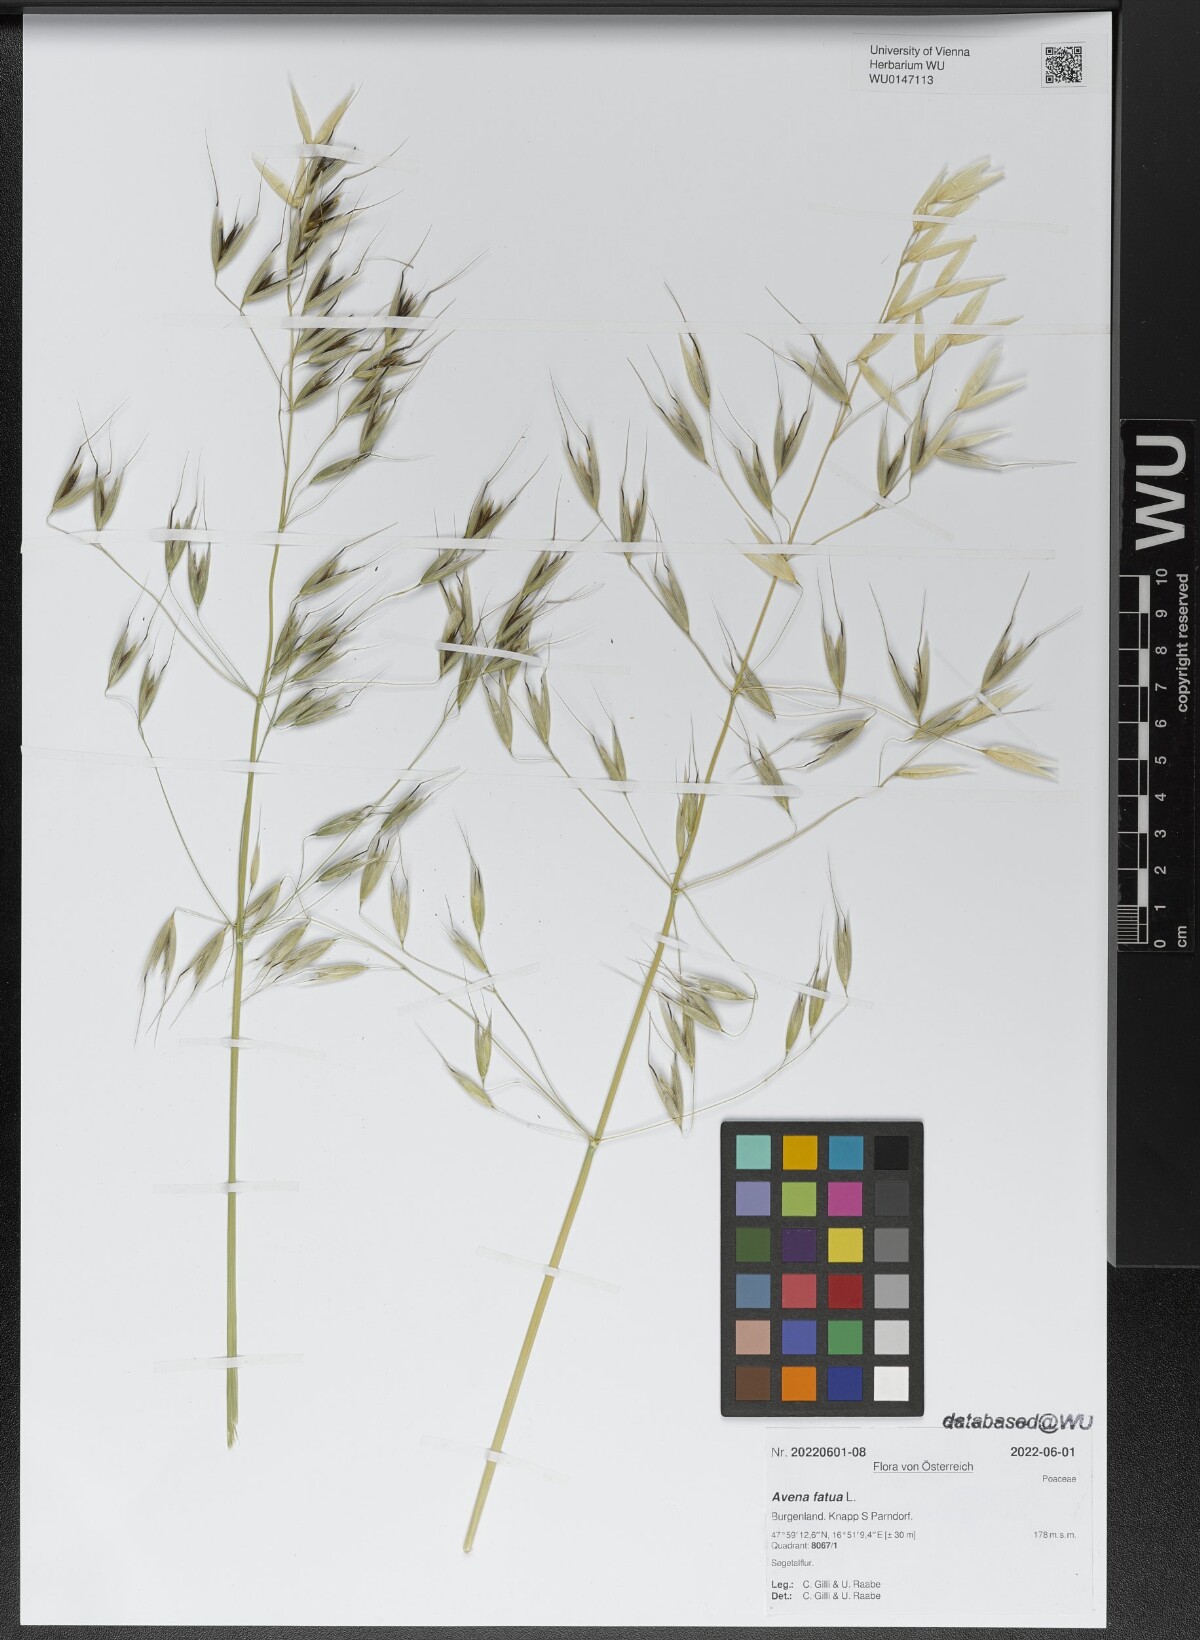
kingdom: Plantae
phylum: Tracheophyta
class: Liliopsida
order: Poales
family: Poaceae
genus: Avena
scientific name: Avena fatua
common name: Wild oat
